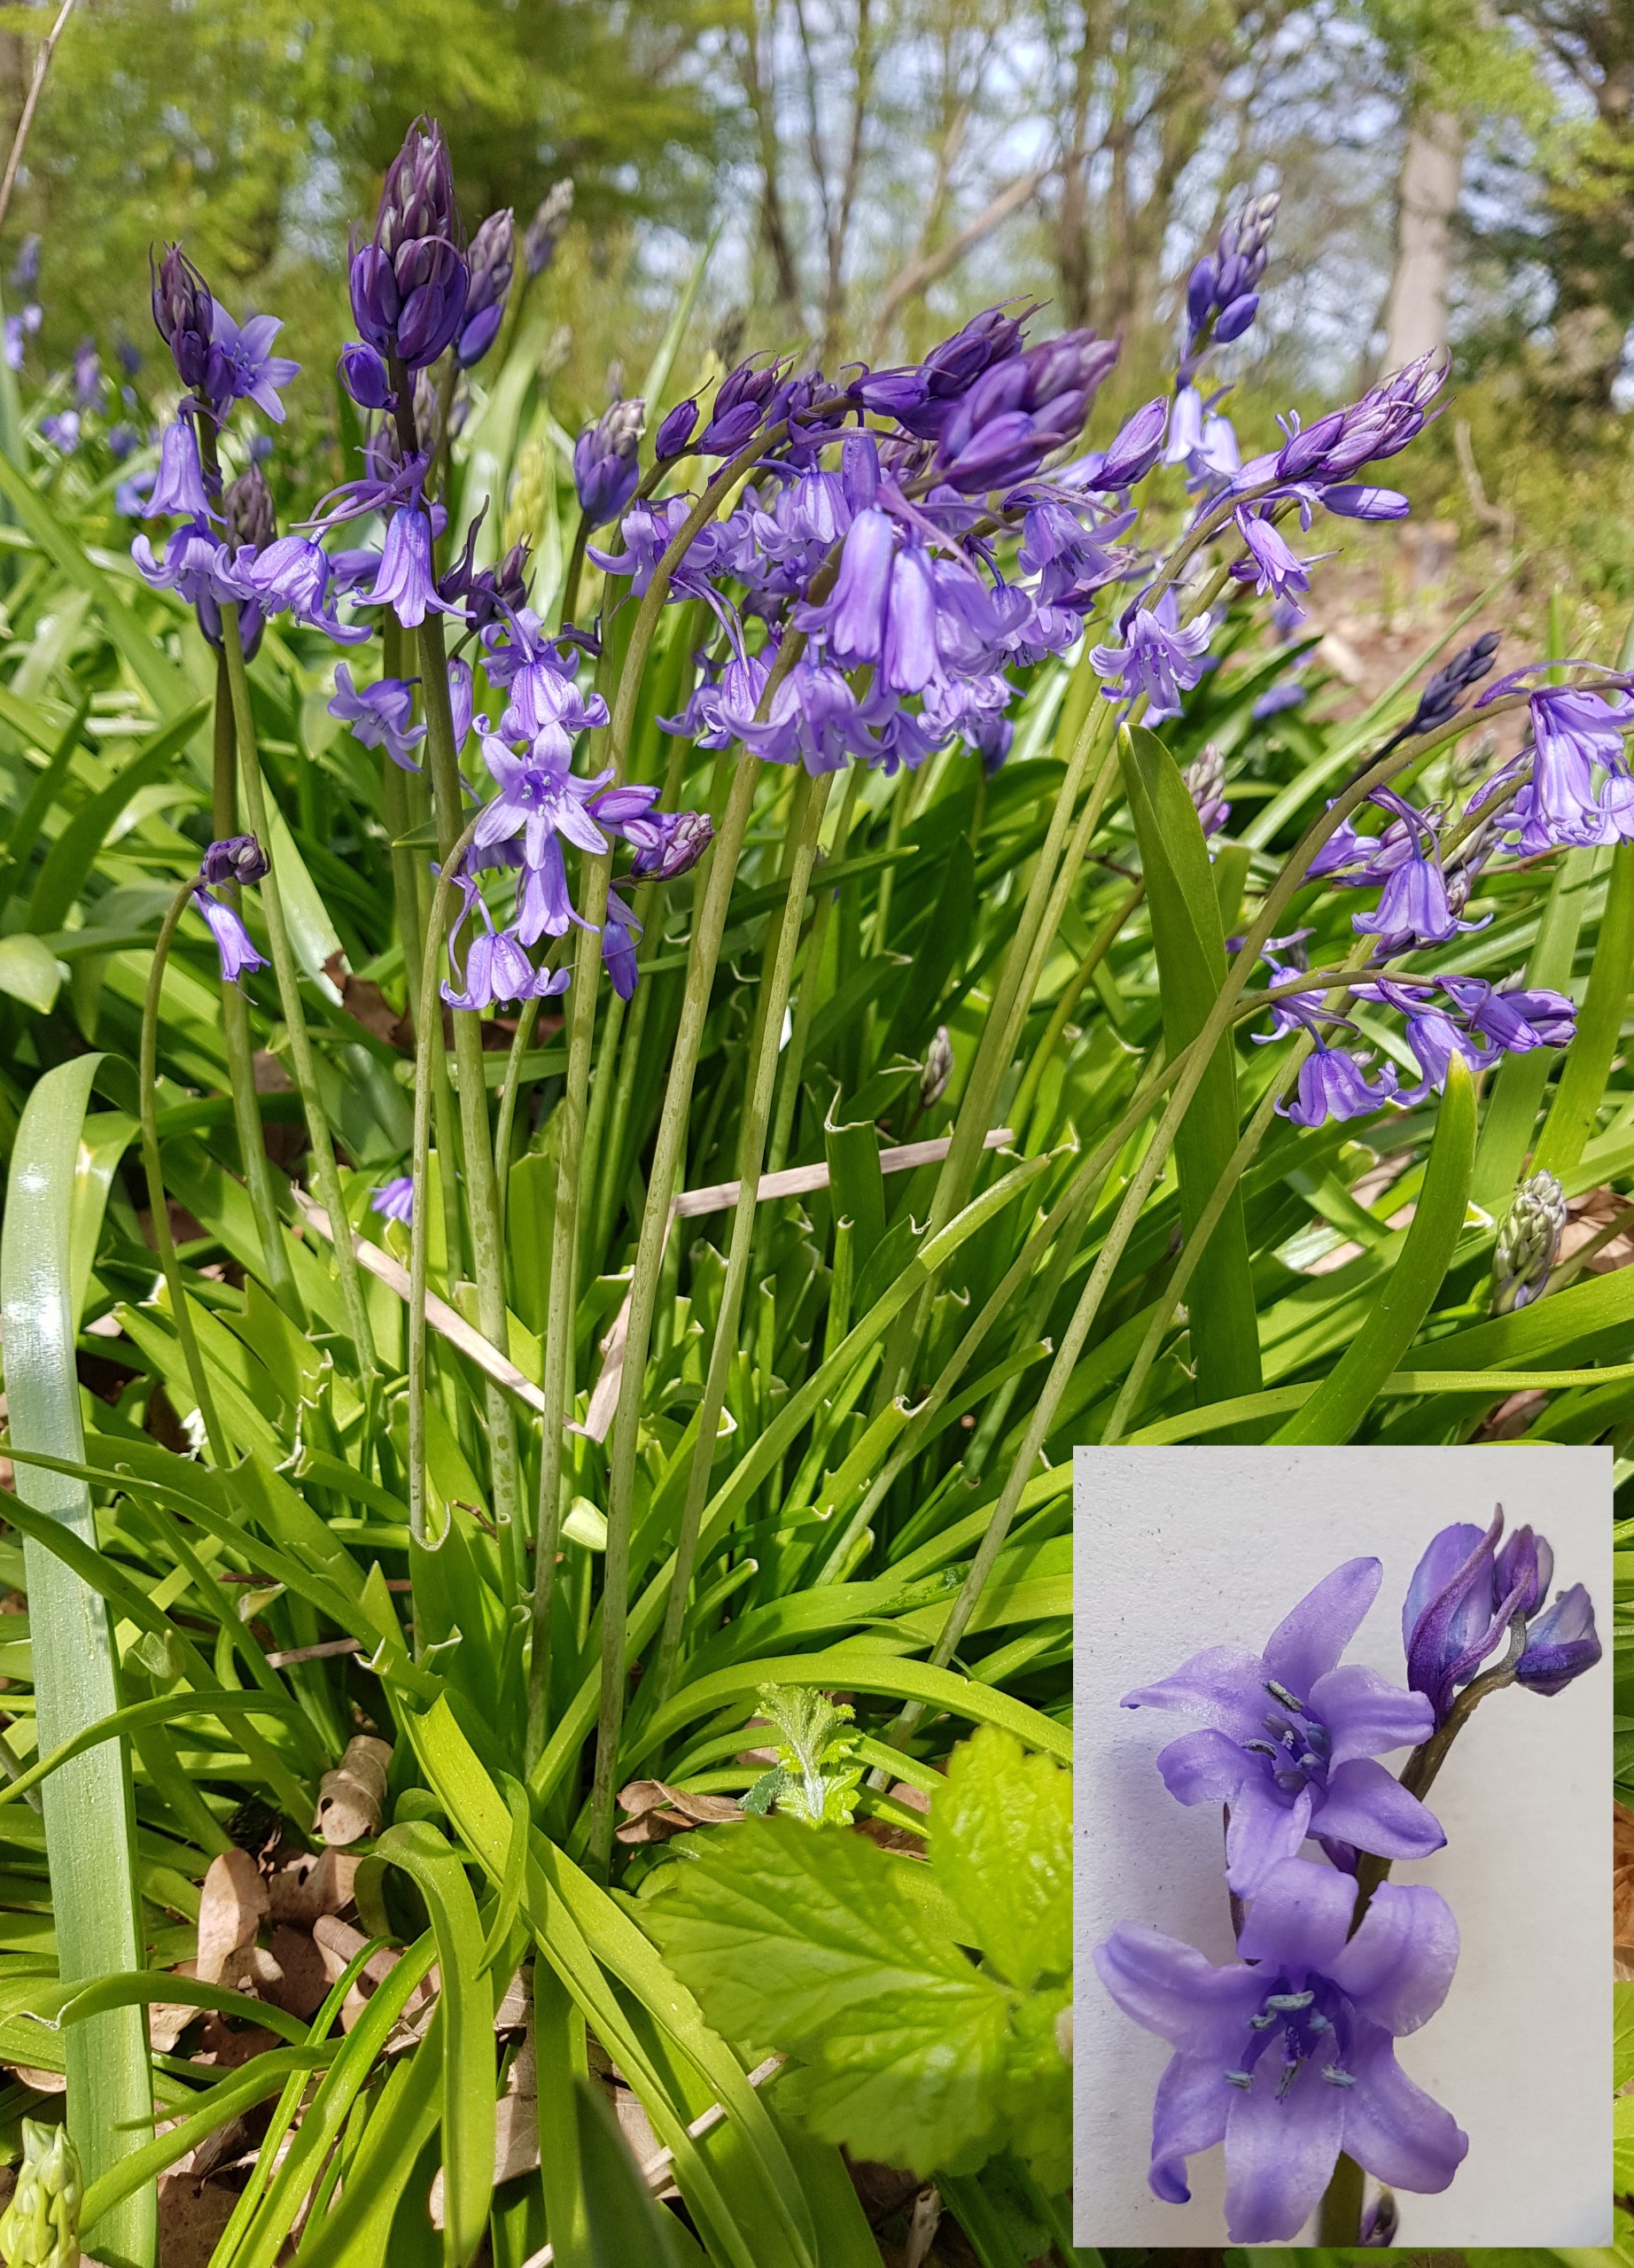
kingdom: Plantae
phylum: Tracheophyta
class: Liliopsida
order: Asparagales
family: Asparagaceae
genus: Hyacinthoides
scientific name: Hyacinthoides massartiana
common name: Hybrid-klokkeskilla
